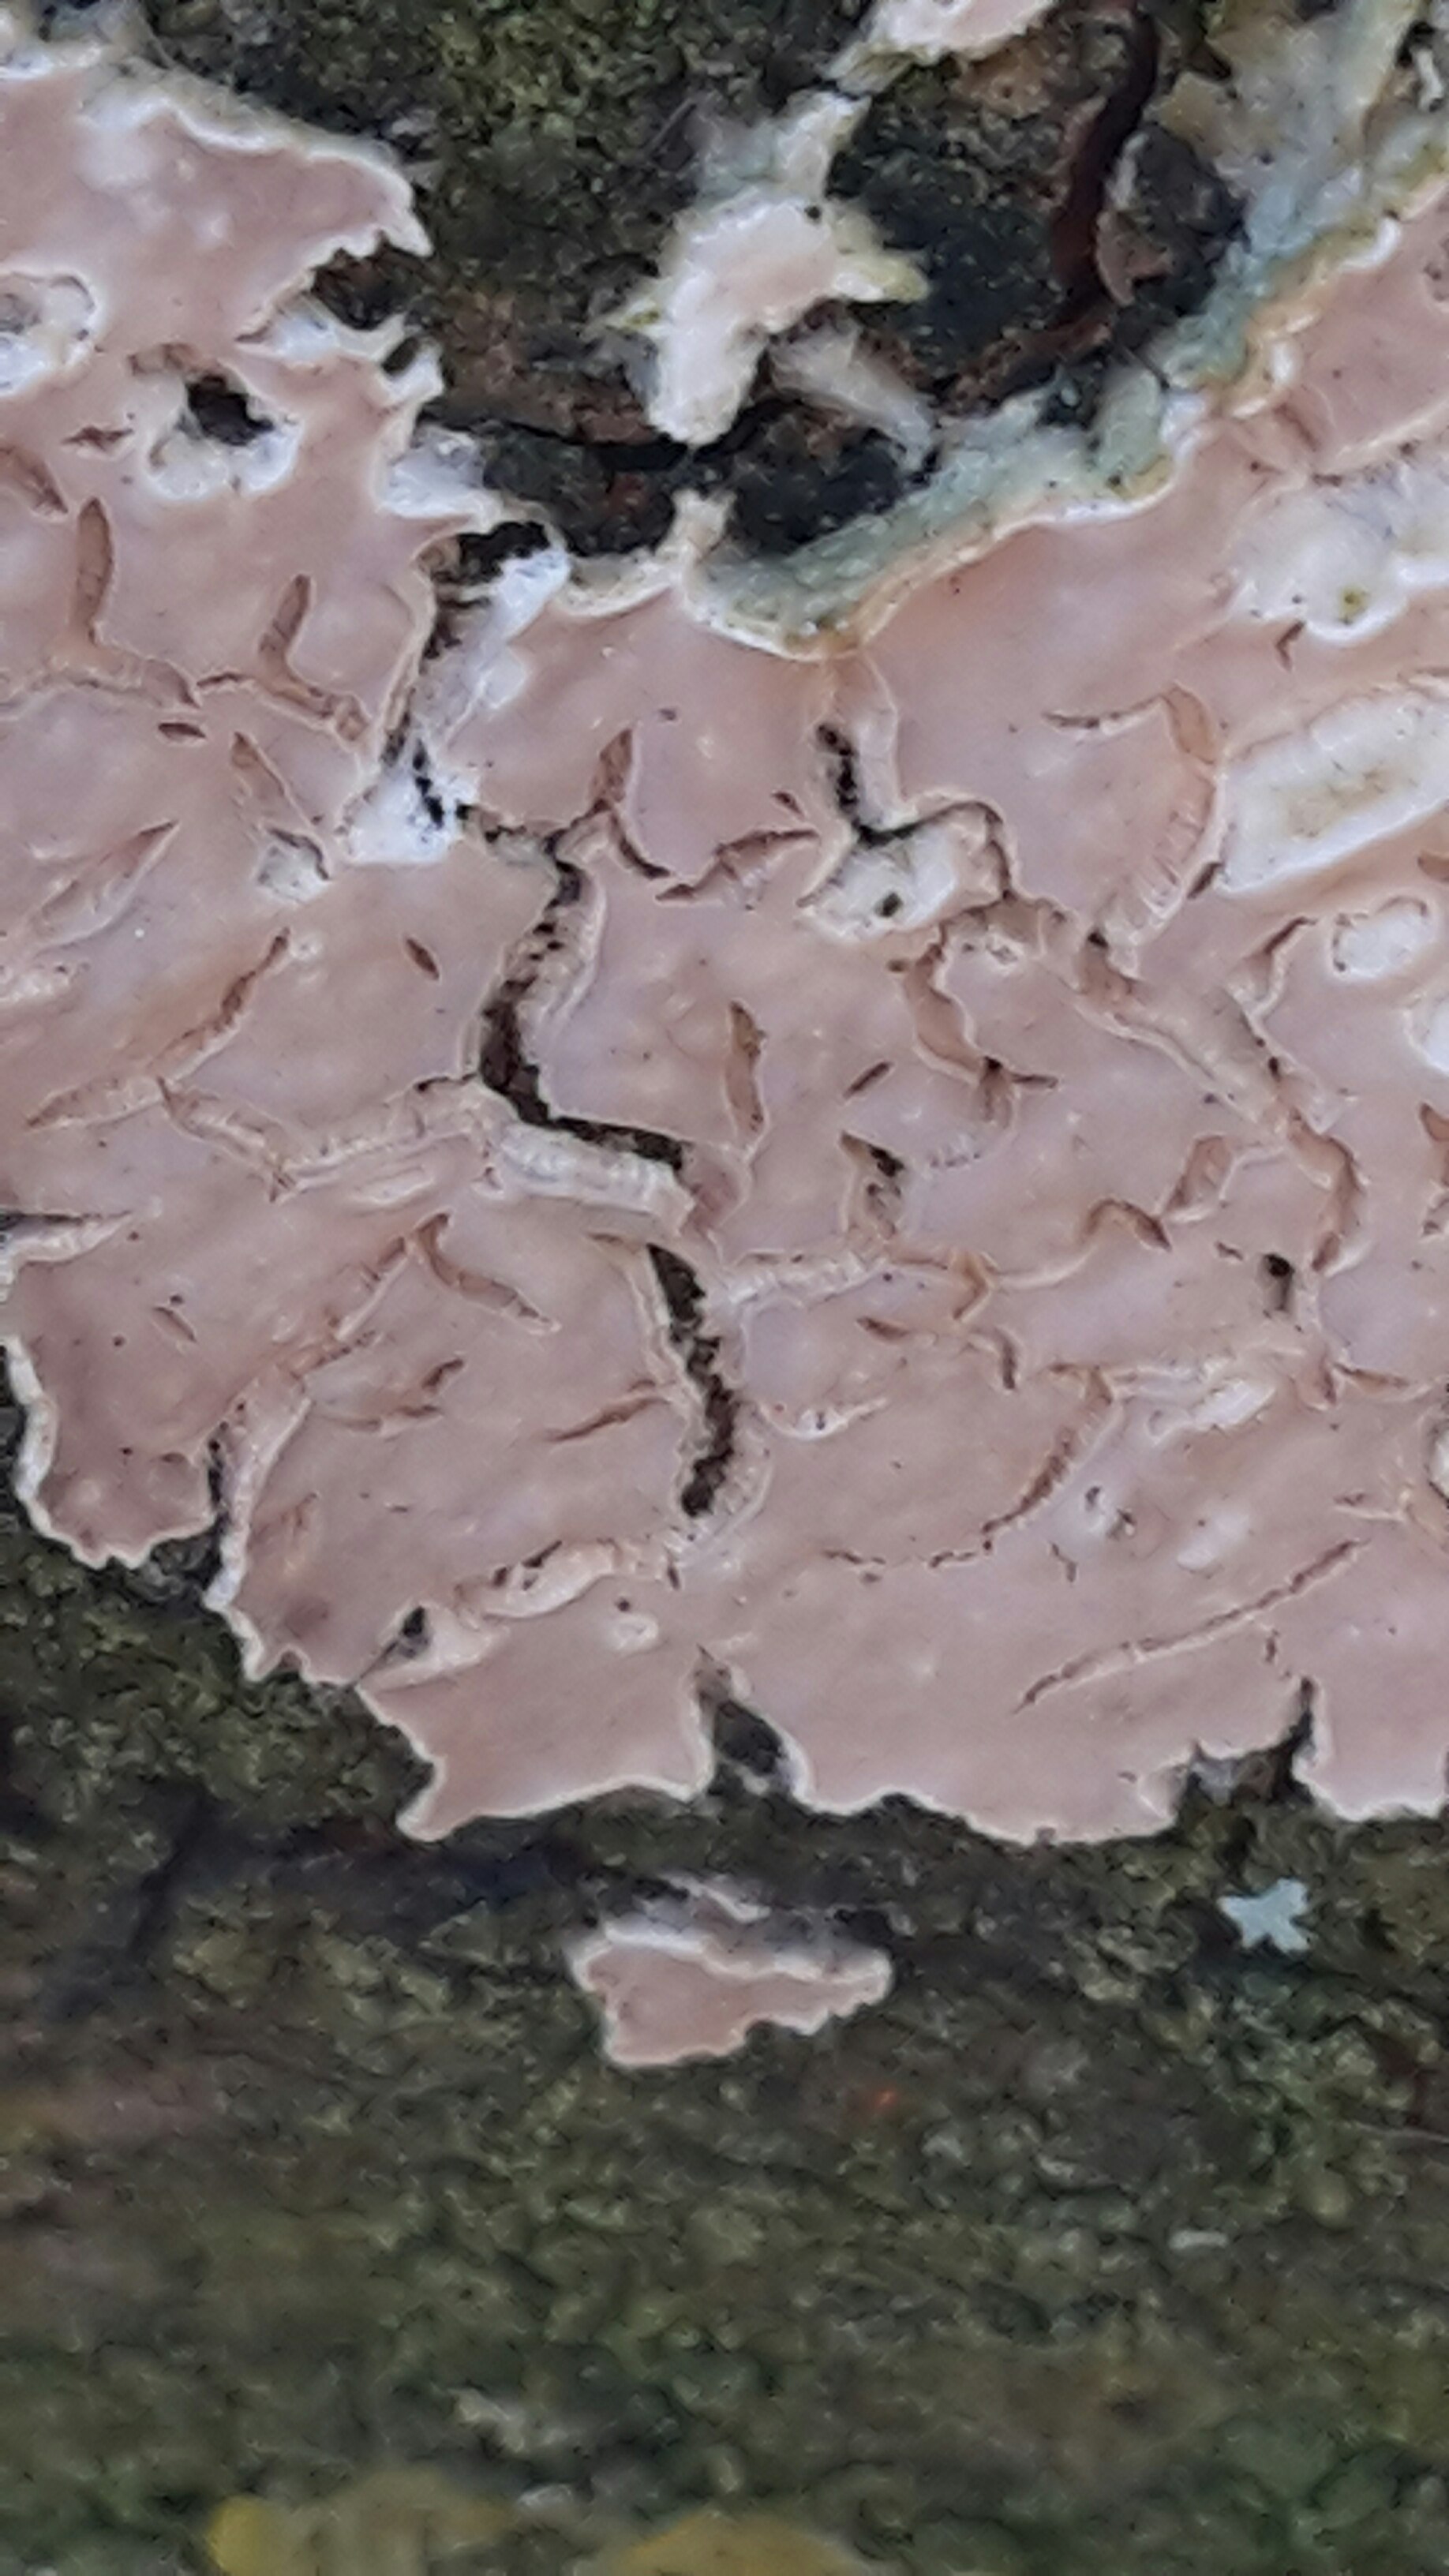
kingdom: Fungi
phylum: Basidiomycota
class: Agaricomycetes
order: Agaricales
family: Physalacriaceae
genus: Cylindrobasidium
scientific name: Cylindrobasidium evolvens
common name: sprækkehinde
